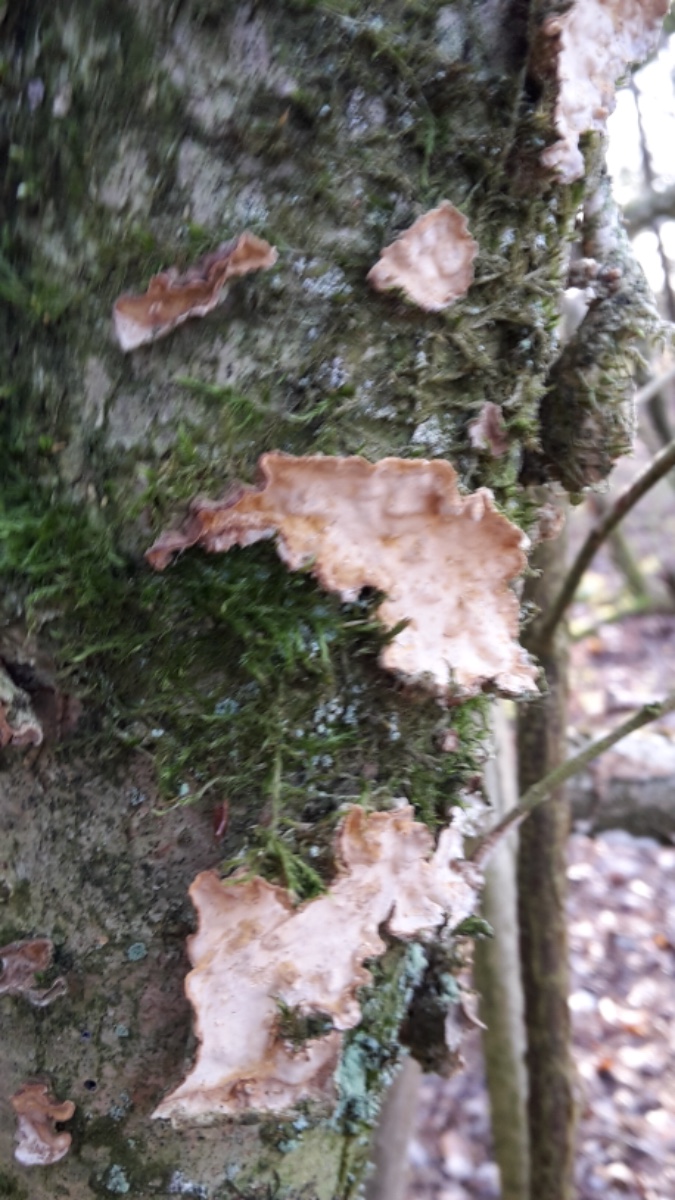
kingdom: Fungi
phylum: Basidiomycota
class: Agaricomycetes
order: Russulales
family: Stereaceae
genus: Stereum
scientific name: Stereum rugosum
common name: rynket lædersvamp
